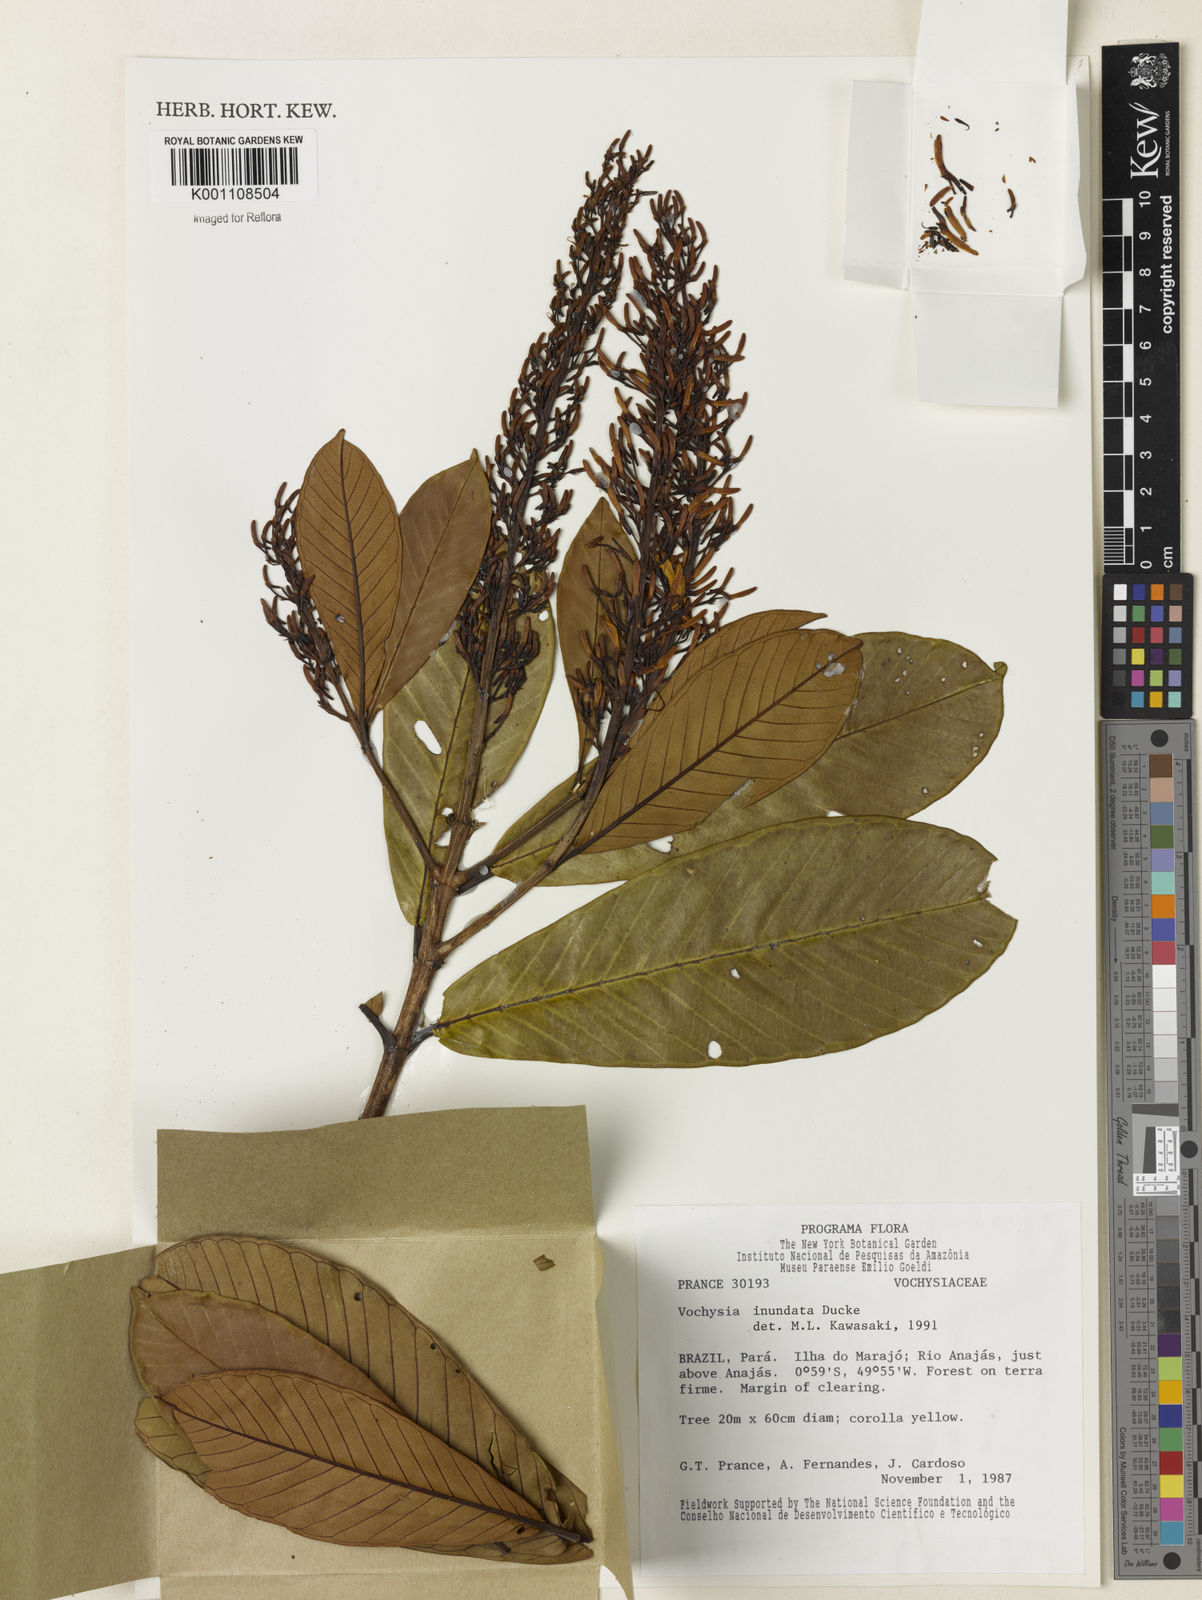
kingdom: Plantae
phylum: Tracheophyta
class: Magnoliopsida
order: Myrtales
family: Vochysiaceae
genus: Vochysia
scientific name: Vochysia inundata
